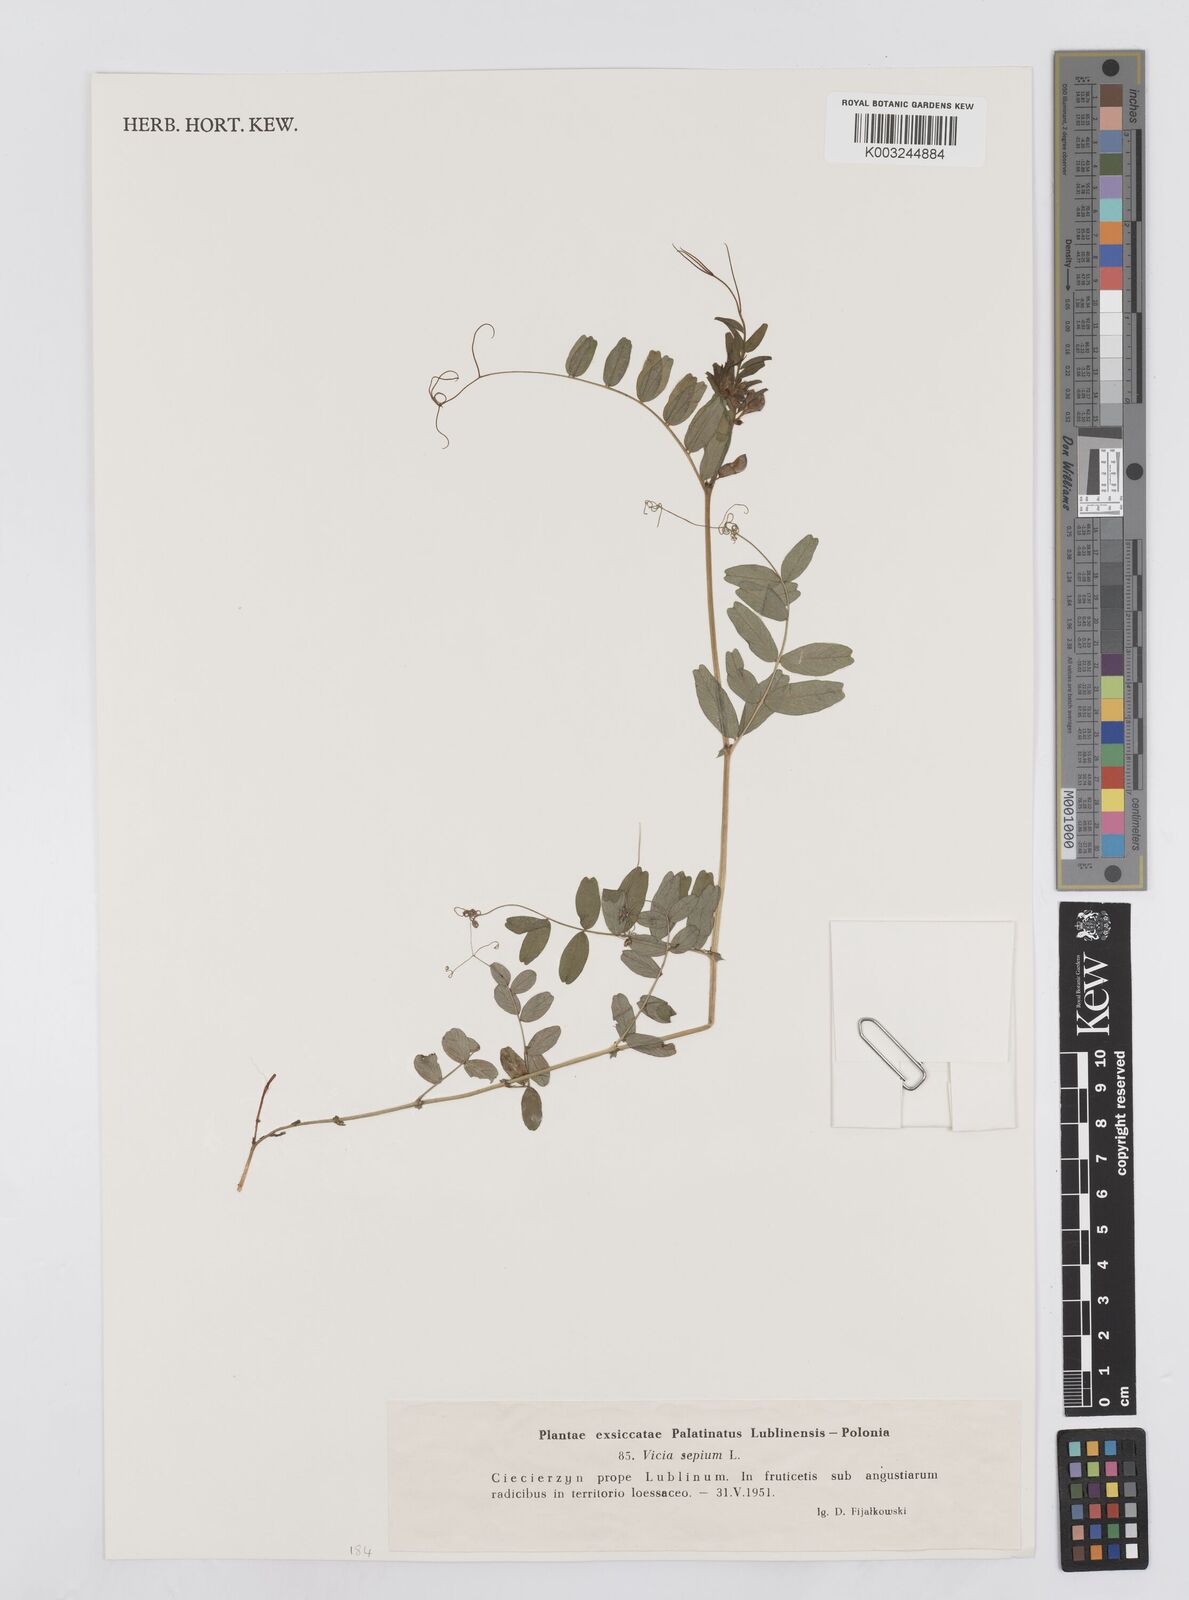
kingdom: Plantae
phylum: Tracheophyta
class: Magnoliopsida
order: Fabales
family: Fabaceae
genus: Vicia
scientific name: Vicia sepium
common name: Bush vetch
